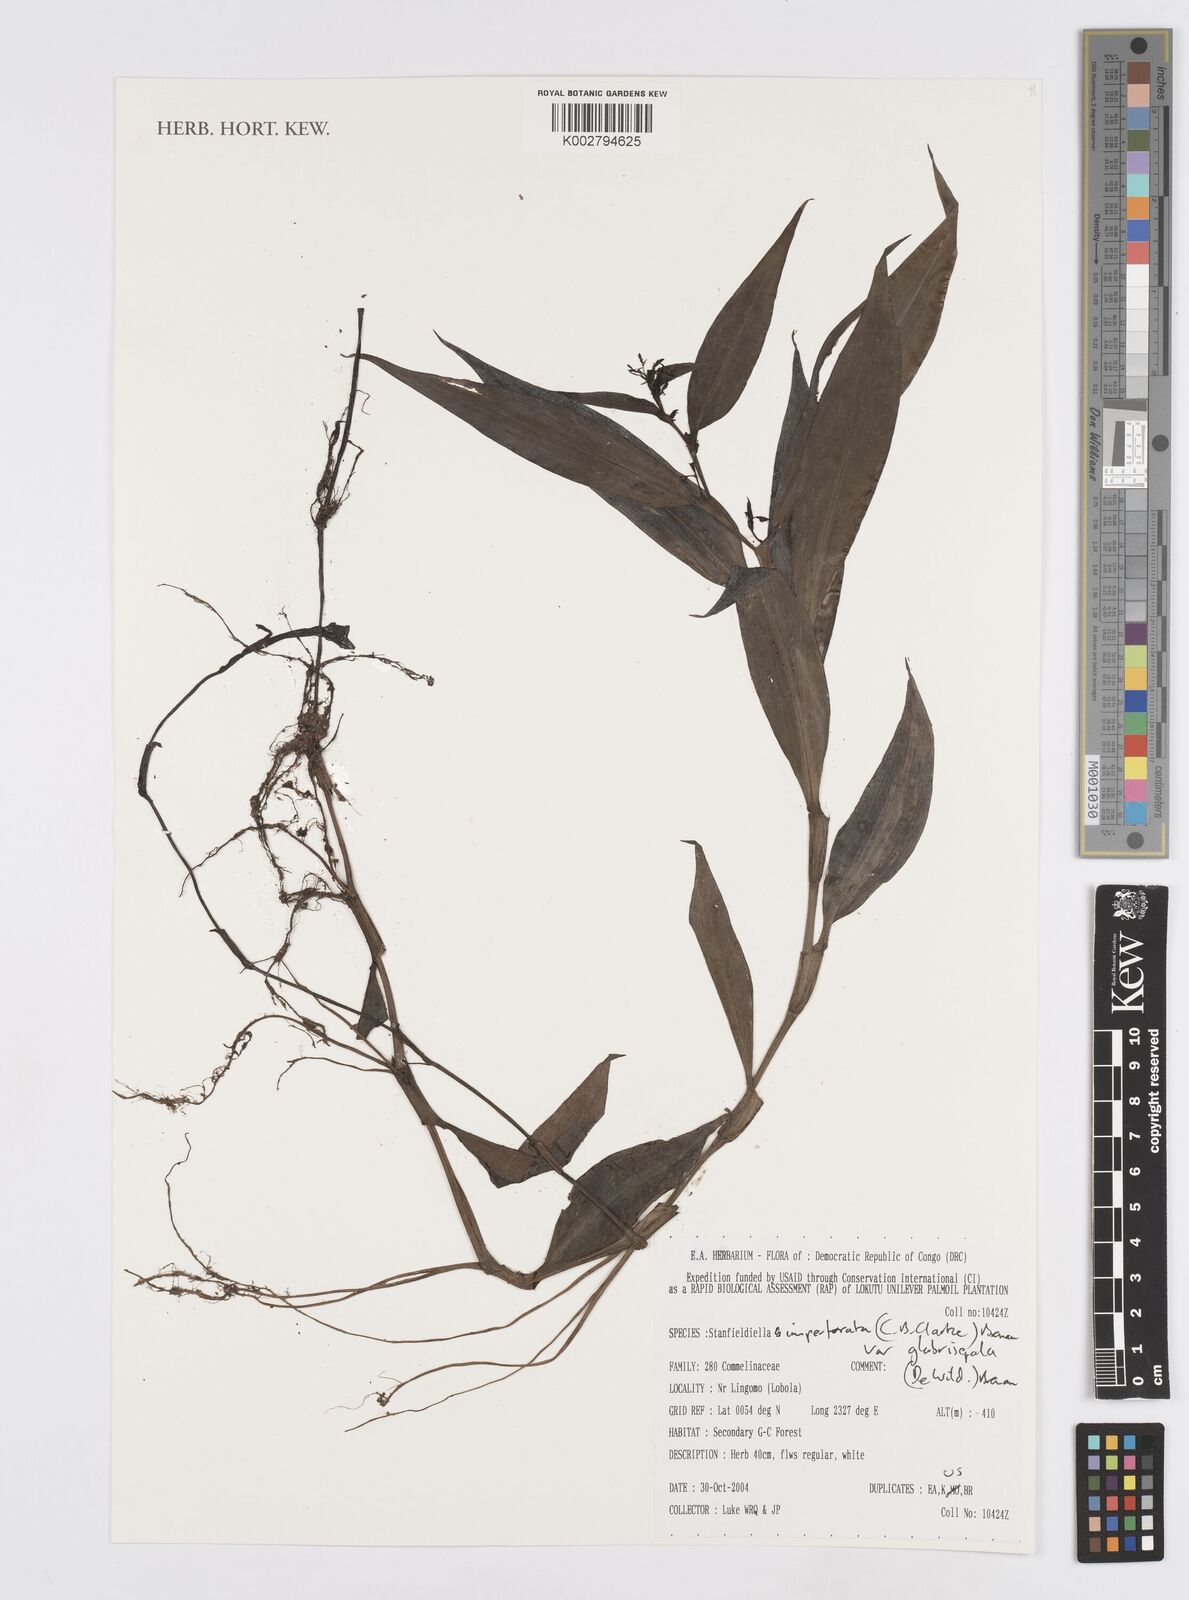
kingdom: Plantae
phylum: Tracheophyta
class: Liliopsida
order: Commelinales
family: Commelinaceae
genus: Stanfieldiella
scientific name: Stanfieldiella imperforata
